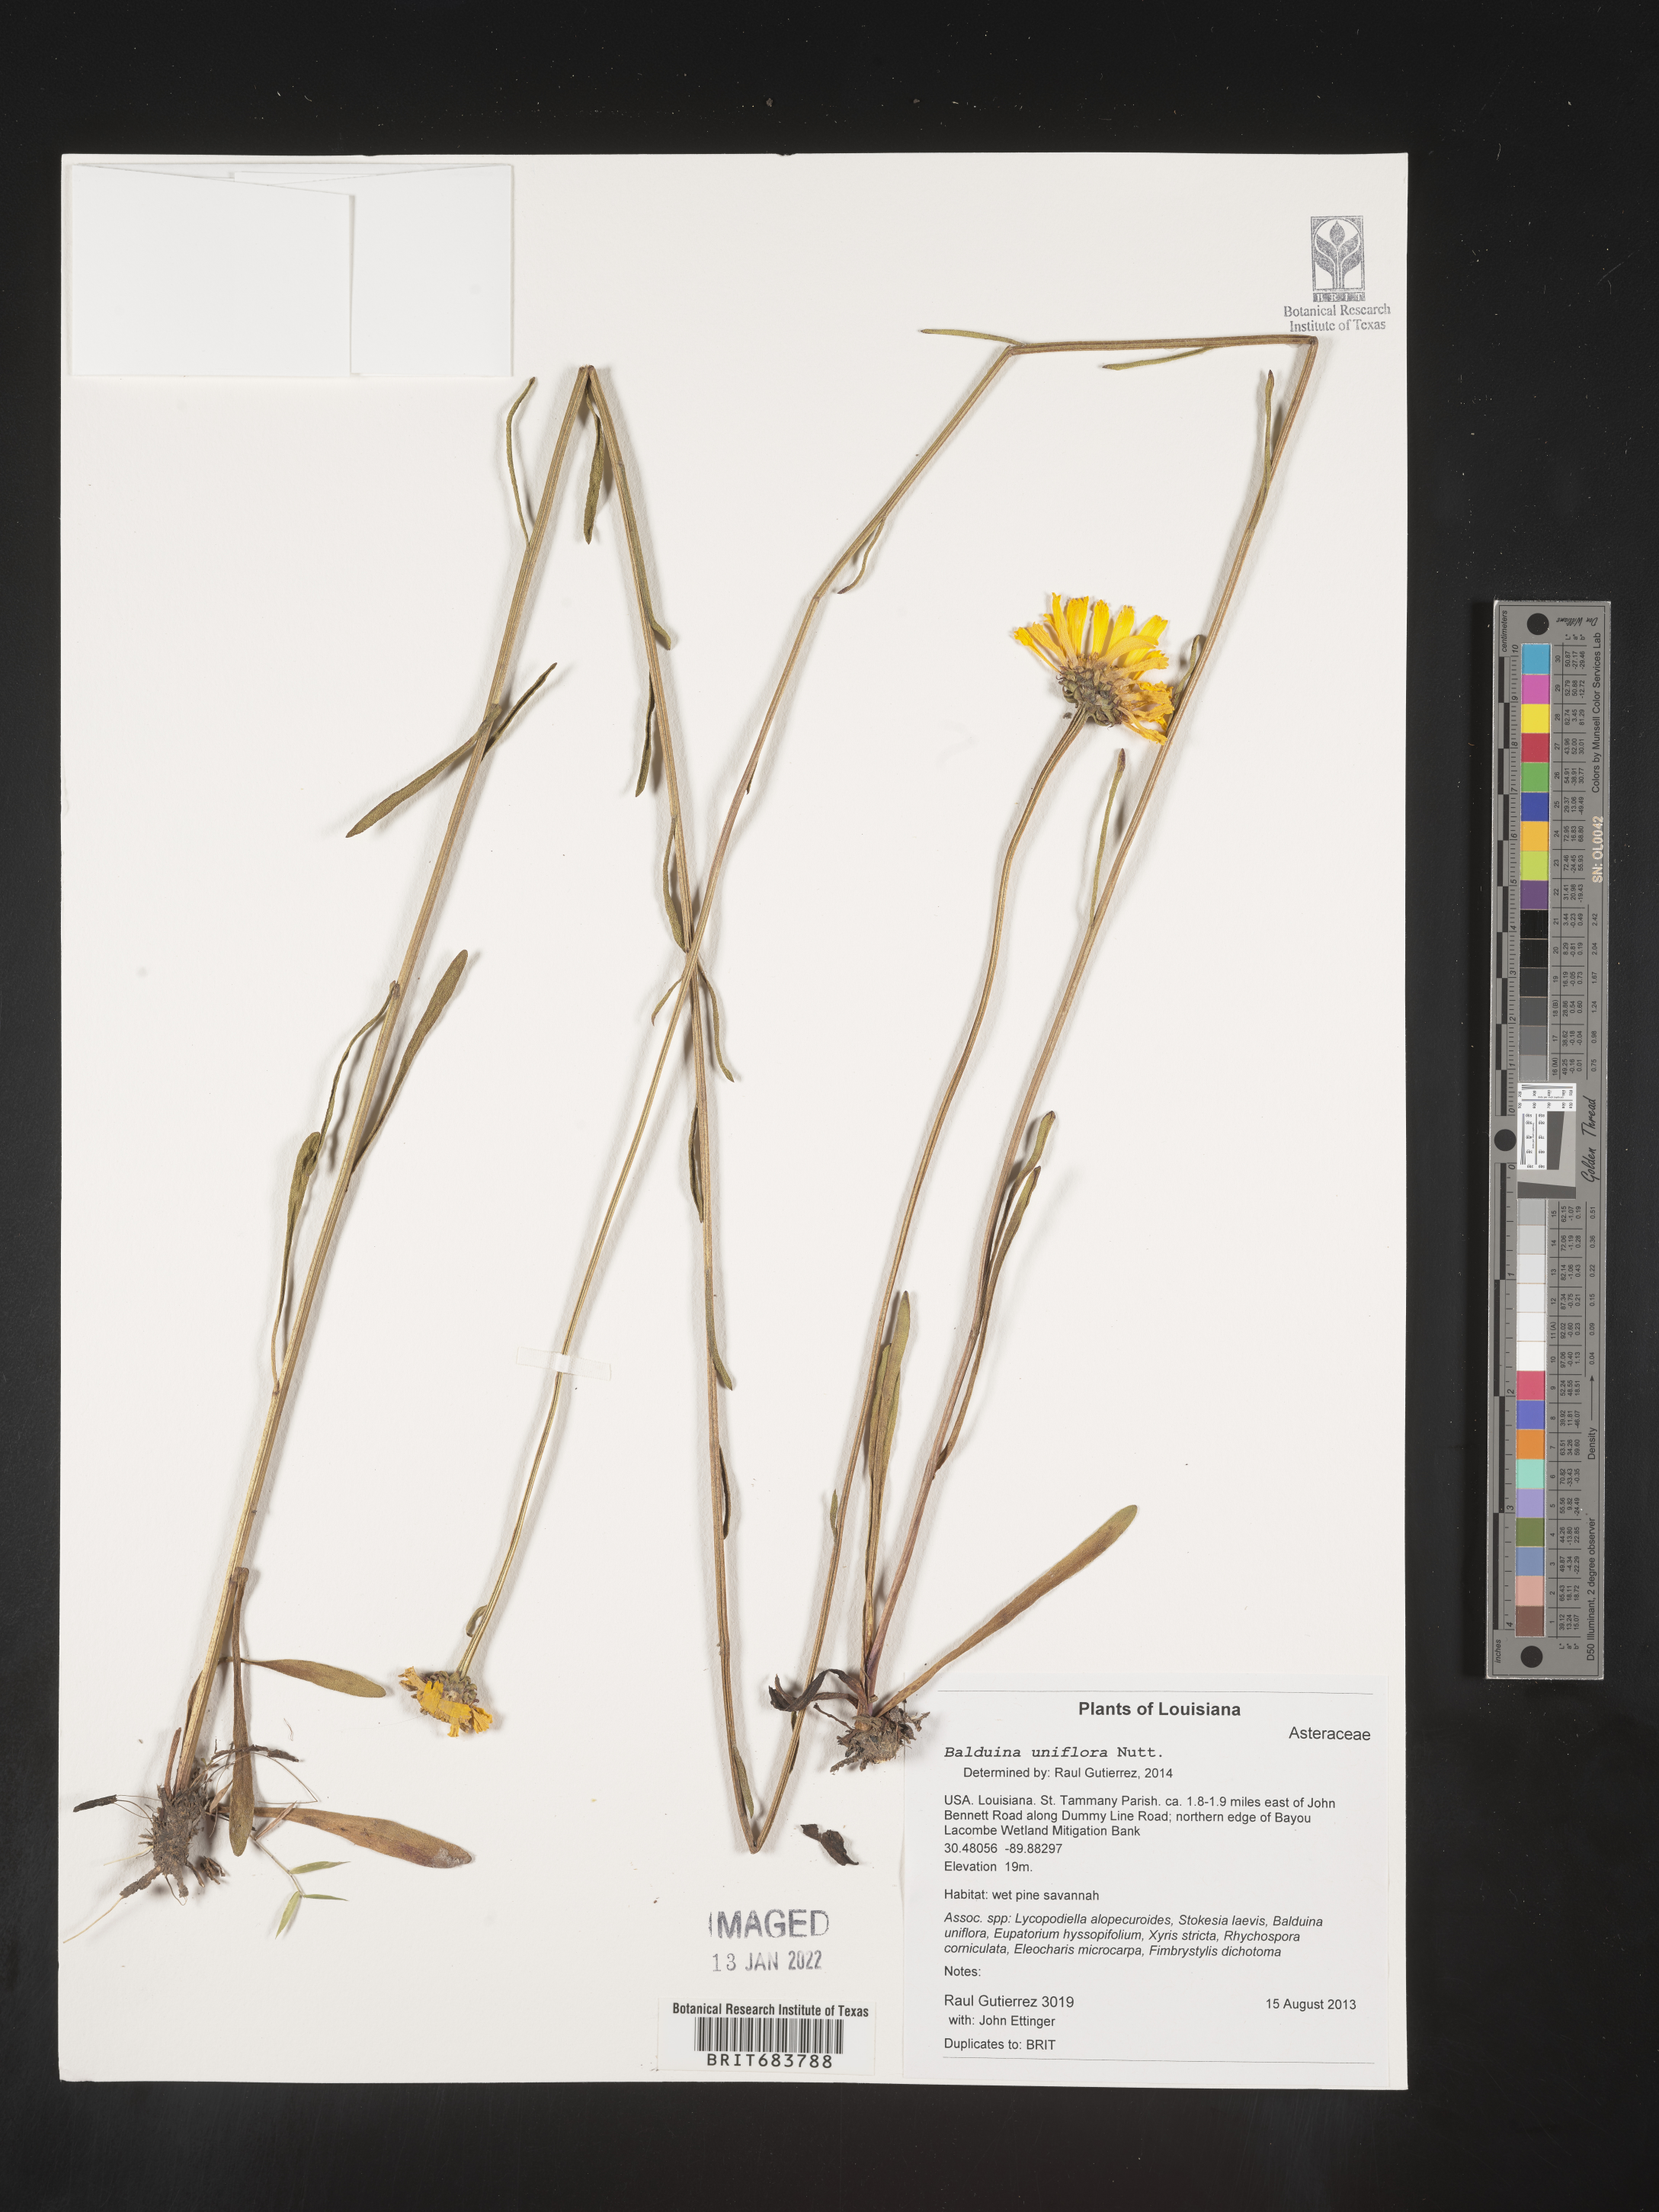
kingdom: Plantae
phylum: Tracheophyta
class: Magnoliopsida
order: Asterales
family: Asteraceae
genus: Balduina
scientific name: Balduina uniflora
